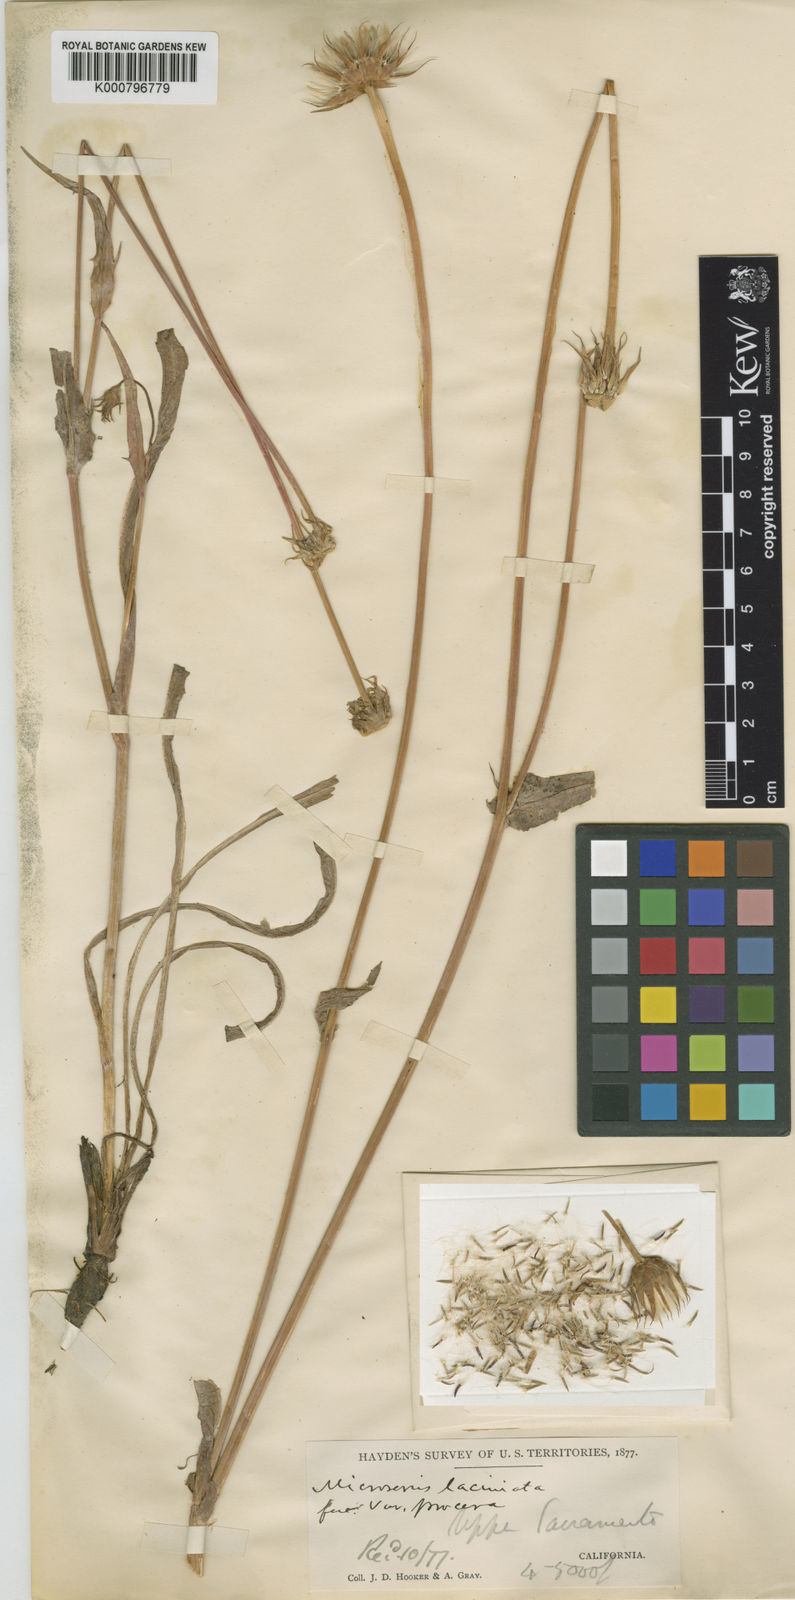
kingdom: Plantae
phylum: Tracheophyta
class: Magnoliopsida
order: Asterales
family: Asteraceae
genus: Microseris
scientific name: Microseris laciniata
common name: Cut-leaf microseris
